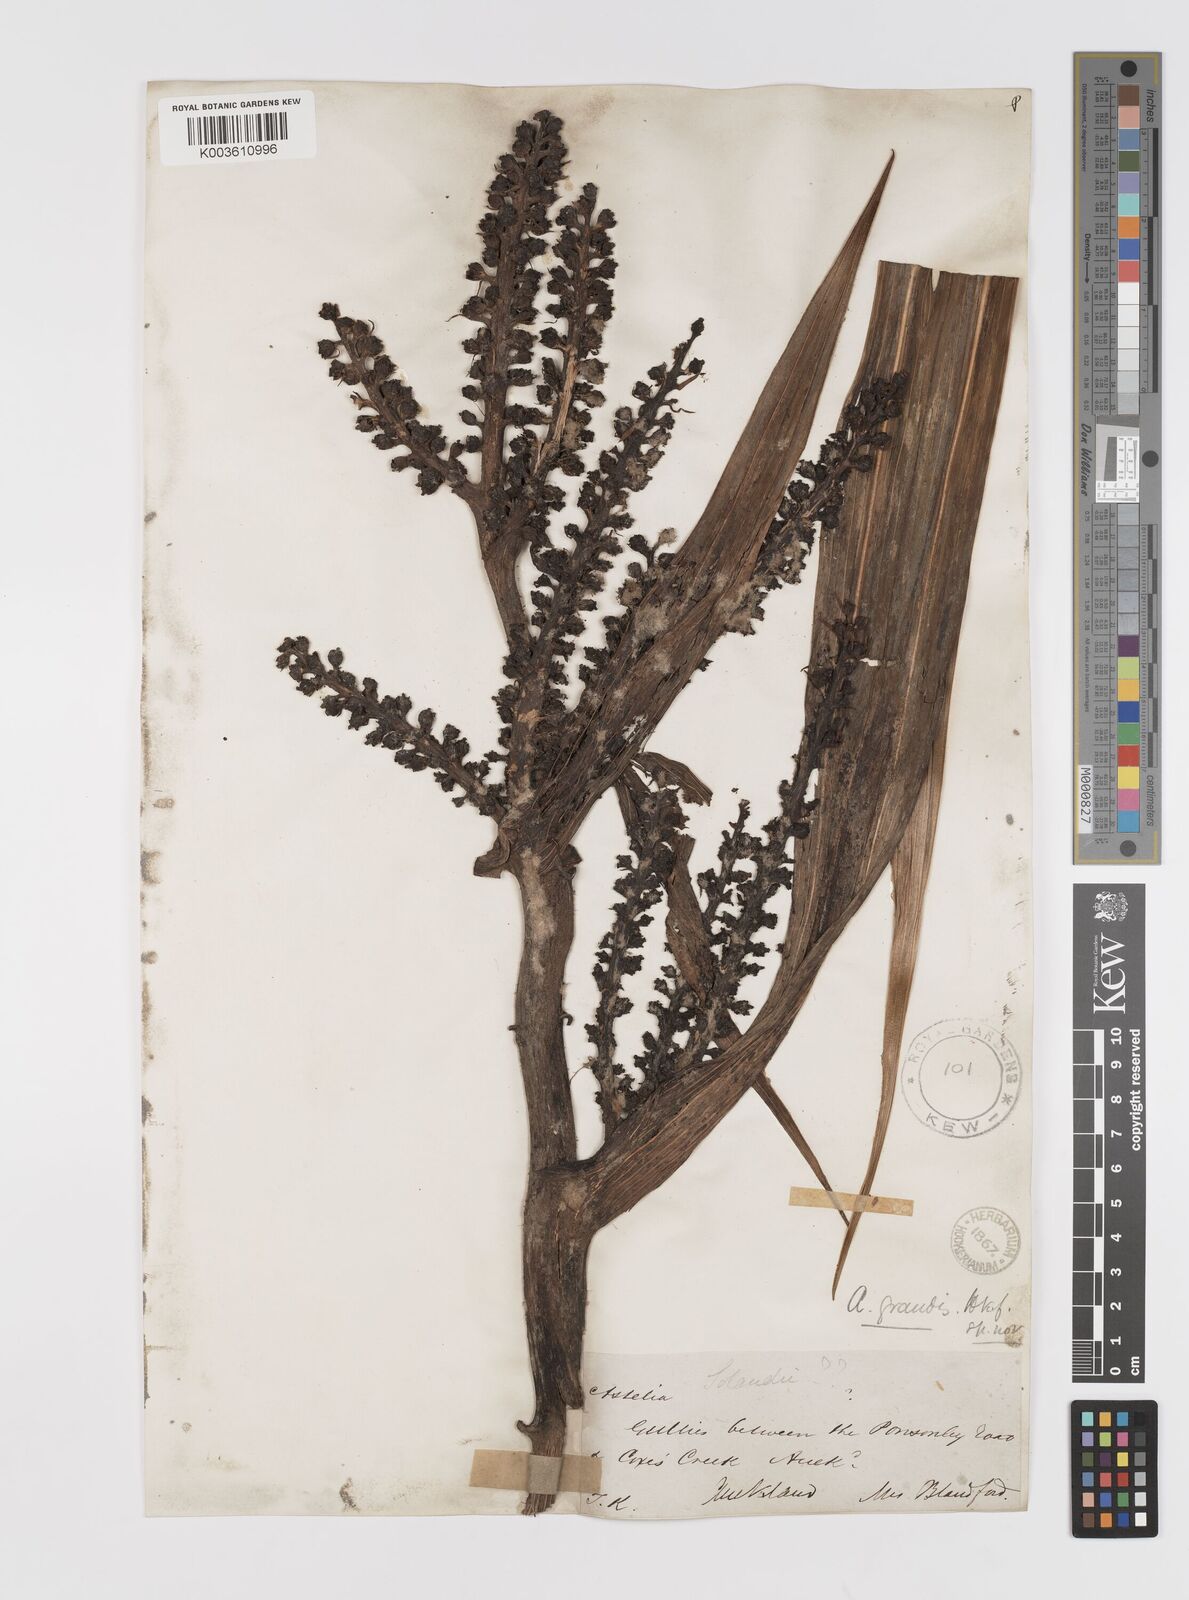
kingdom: Plantae
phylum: Tracheophyta
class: Liliopsida
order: Asparagales
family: Asteliaceae
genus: Astelia
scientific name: Astelia nervosa
